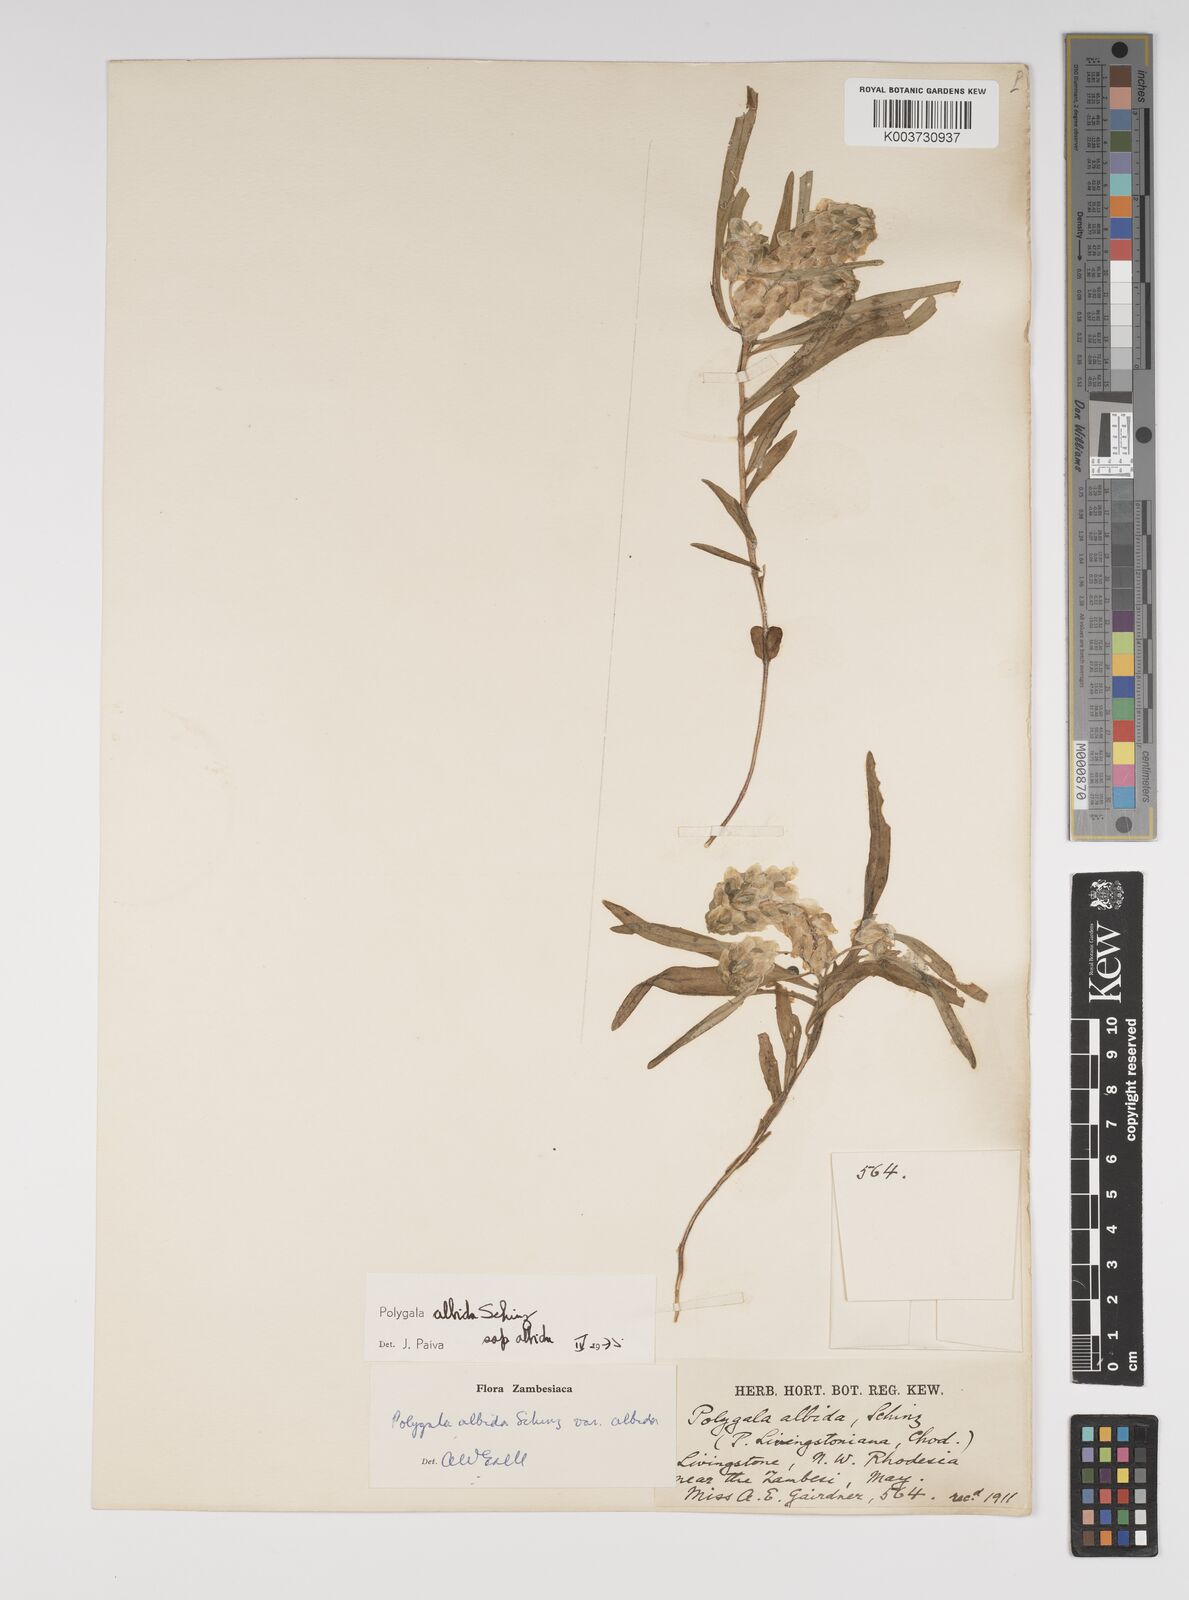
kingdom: Plantae
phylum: Tracheophyta
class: Magnoliopsida
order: Fabales
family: Polygalaceae
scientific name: Polygalaceae
